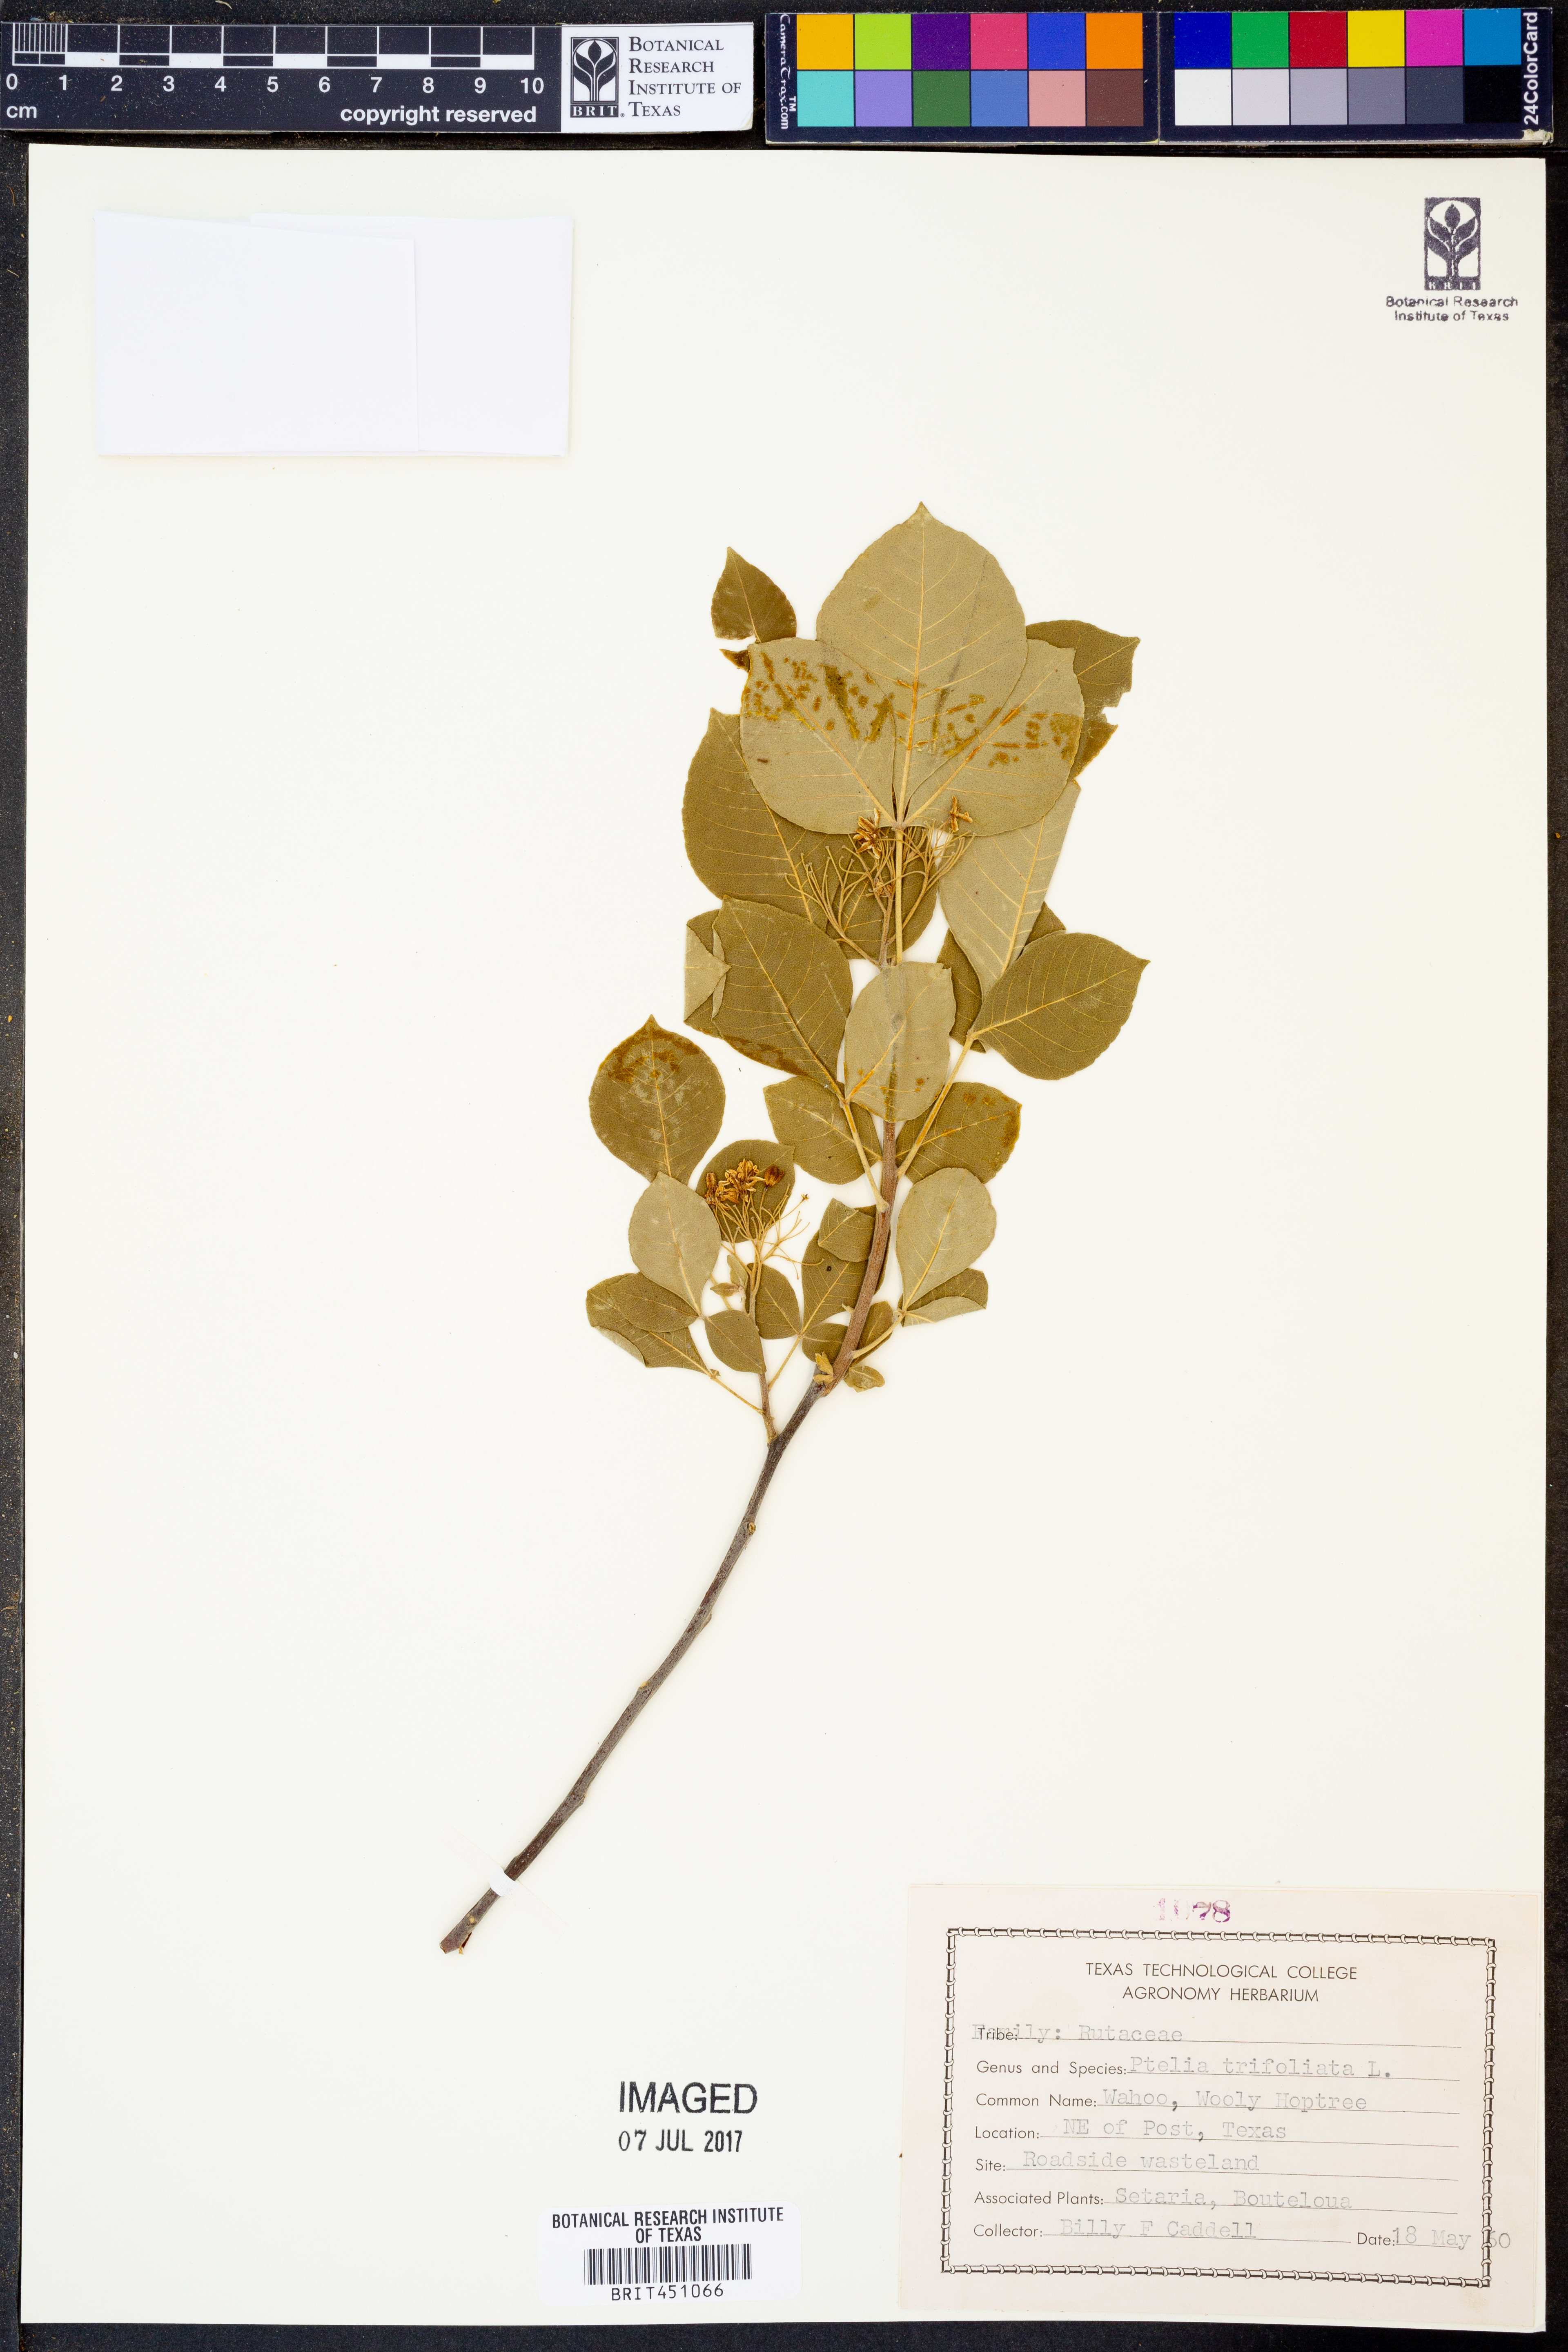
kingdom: Plantae
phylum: Tracheophyta
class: Magnoliopsida
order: Sapindales
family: Rutaceae
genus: Ptelea
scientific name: Ptelea trifoliata
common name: Common hop-tree
